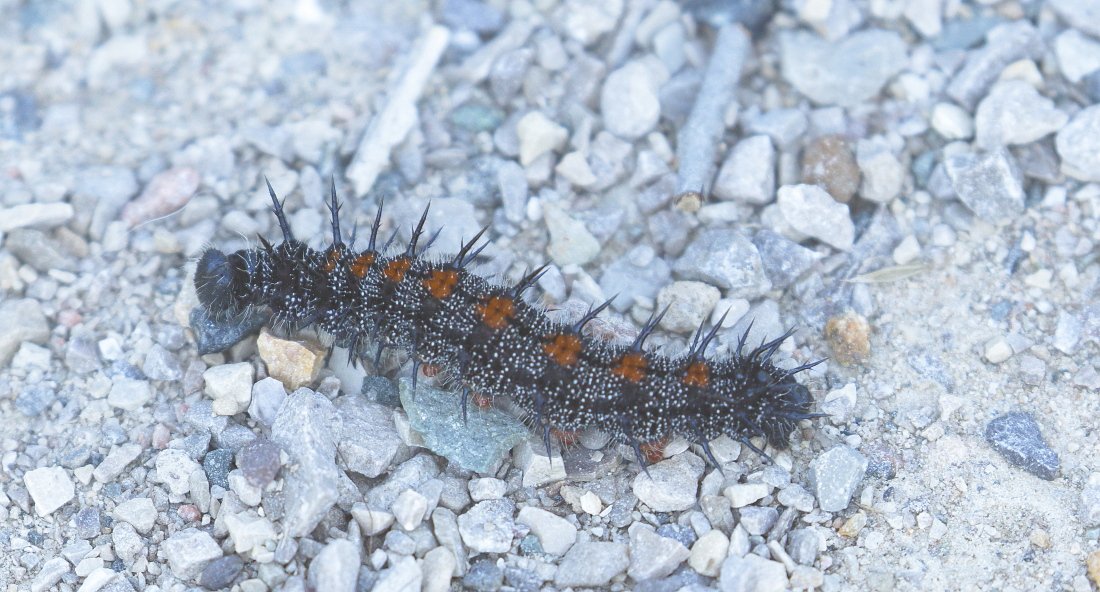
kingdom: Animalia
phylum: Arthropoda
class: Insecta
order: Lepidoptera
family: Nymphalidae
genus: Nymphalis
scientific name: Nymphalis antiopa
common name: Mourning Cloak
